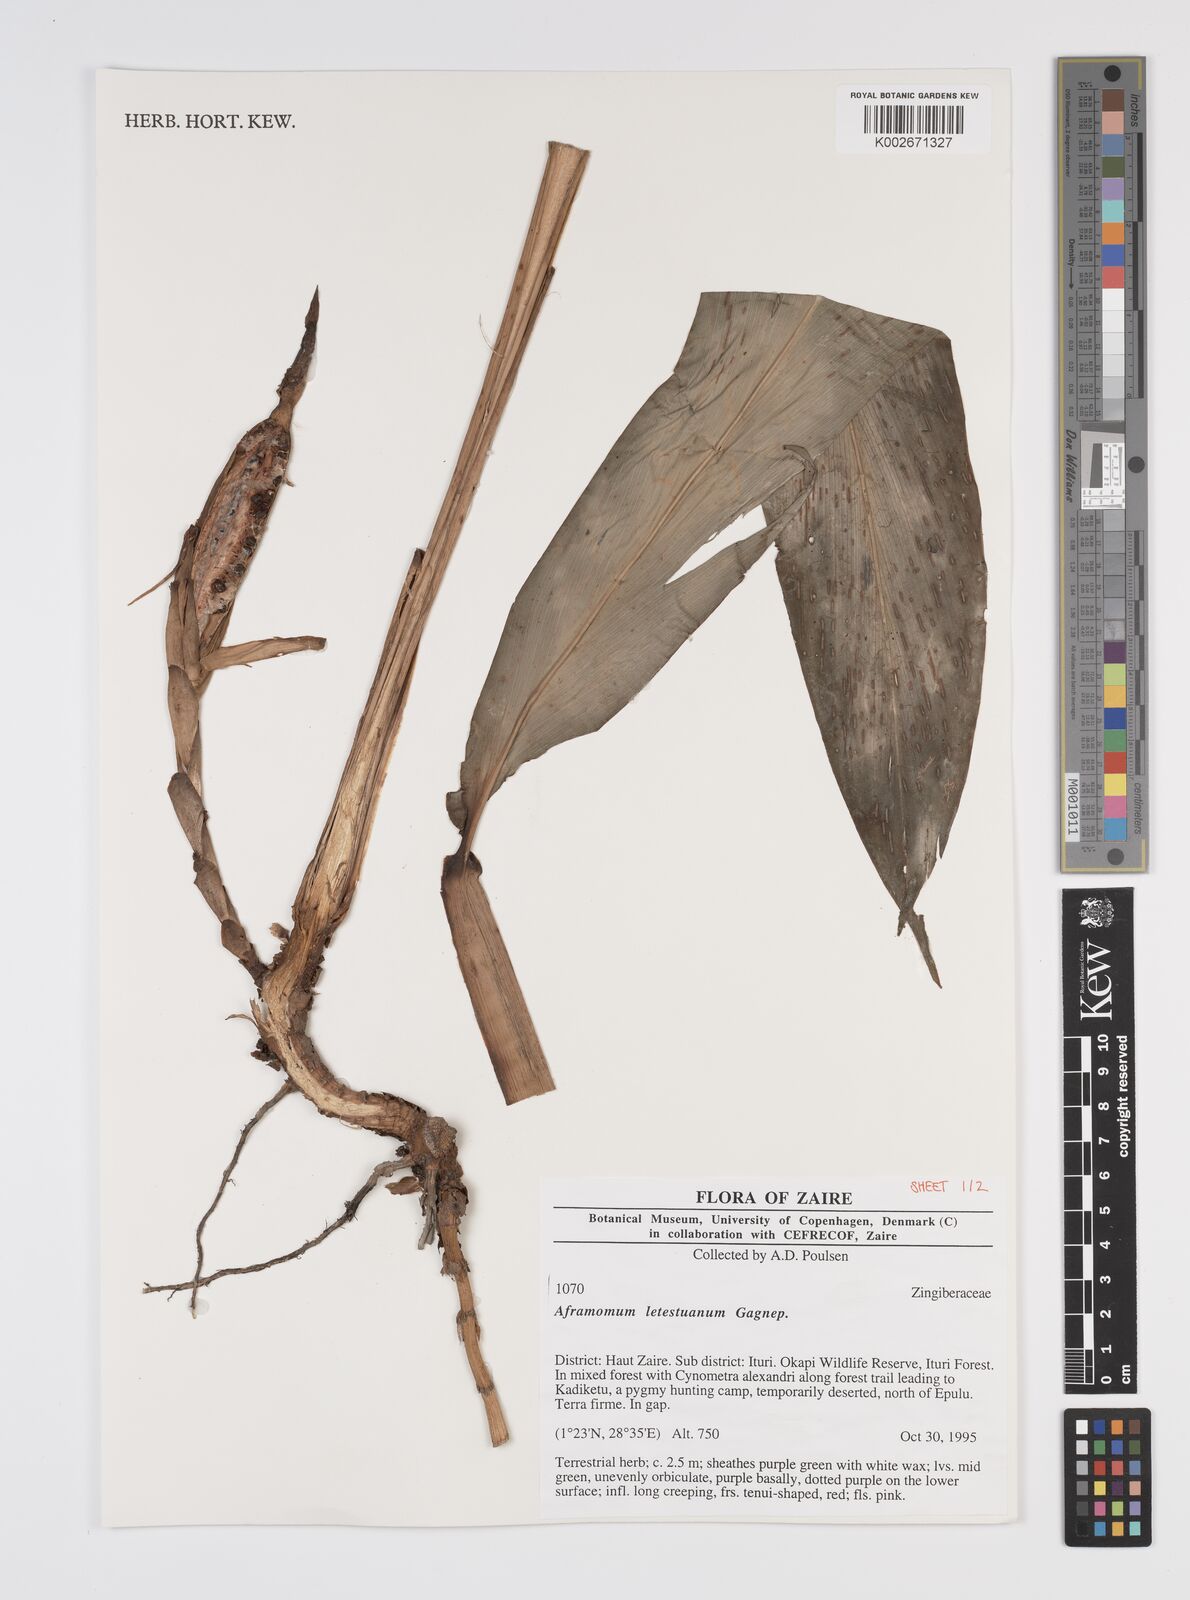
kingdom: Plantae
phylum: Tracheophyta
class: Liliopsida
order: Zingiberales
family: Zingiberaceae
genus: Aframomum
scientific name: Aframomum letestuanum
